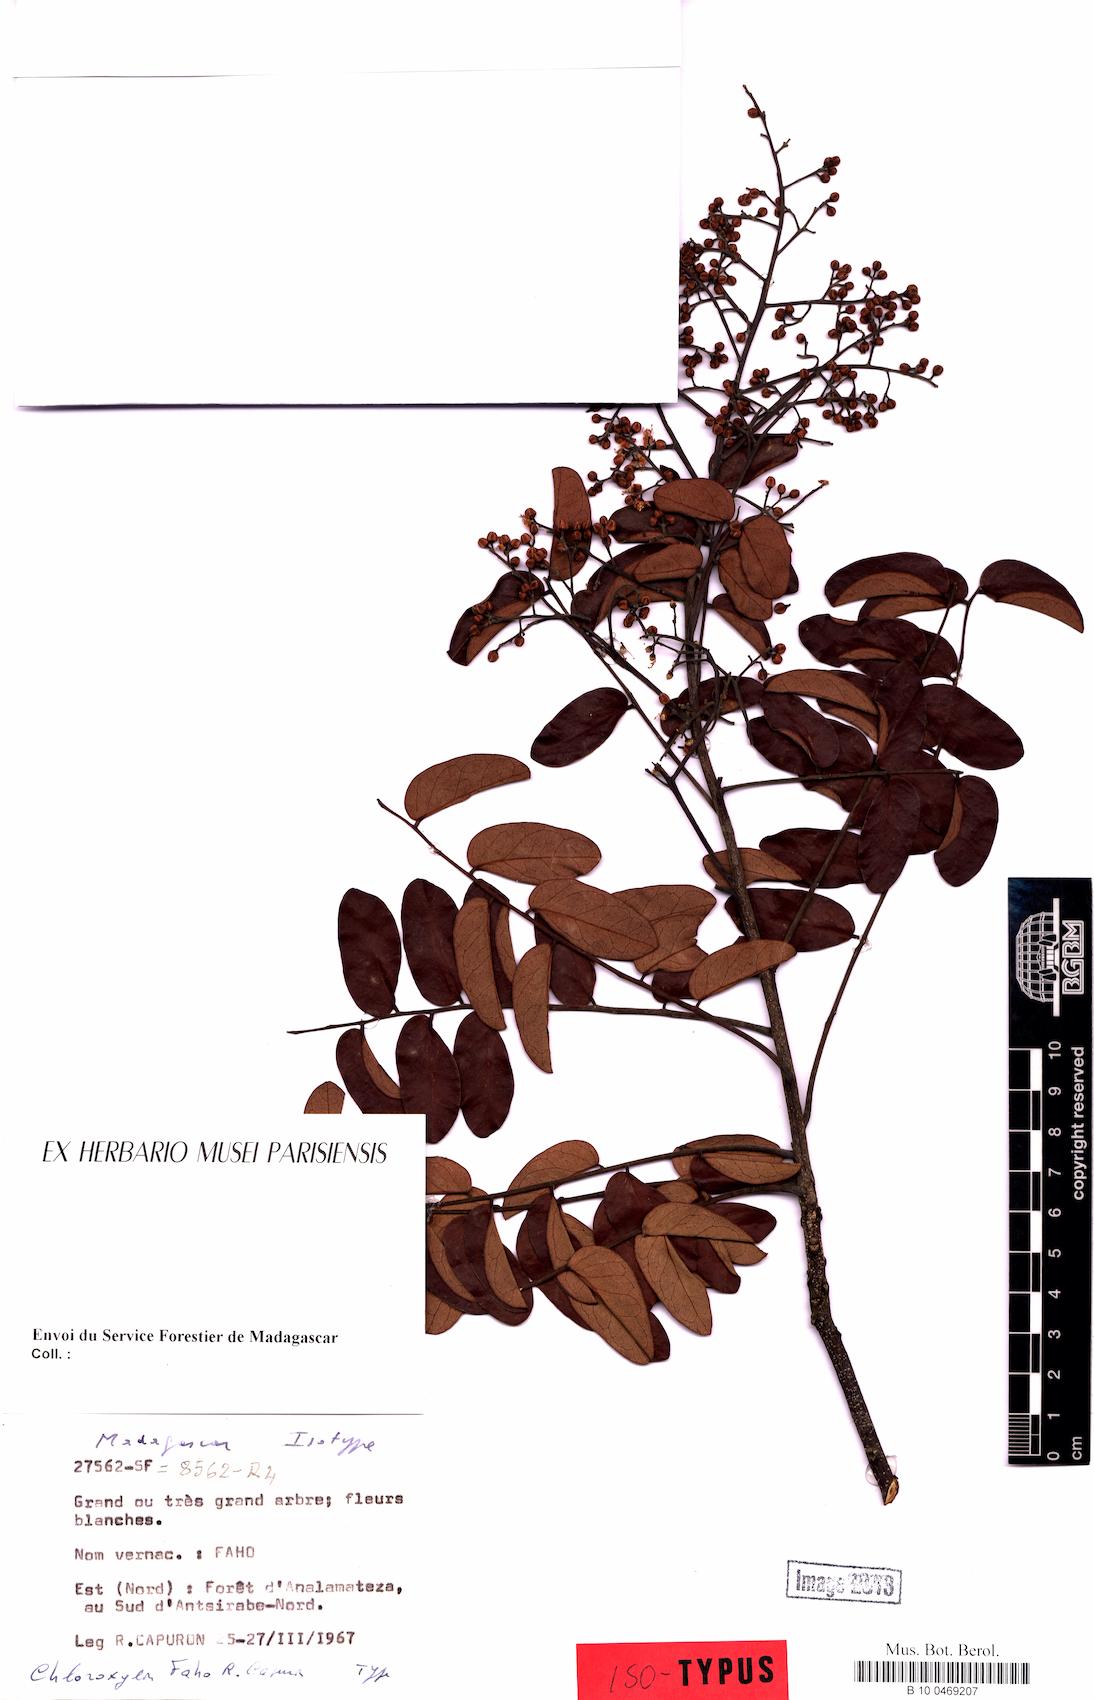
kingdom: Plantae
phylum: Tracheophyta
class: Magnoliopsida
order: Sapindales
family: Rutaceae
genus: Chloroxylon
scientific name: Chloroxylon faho
